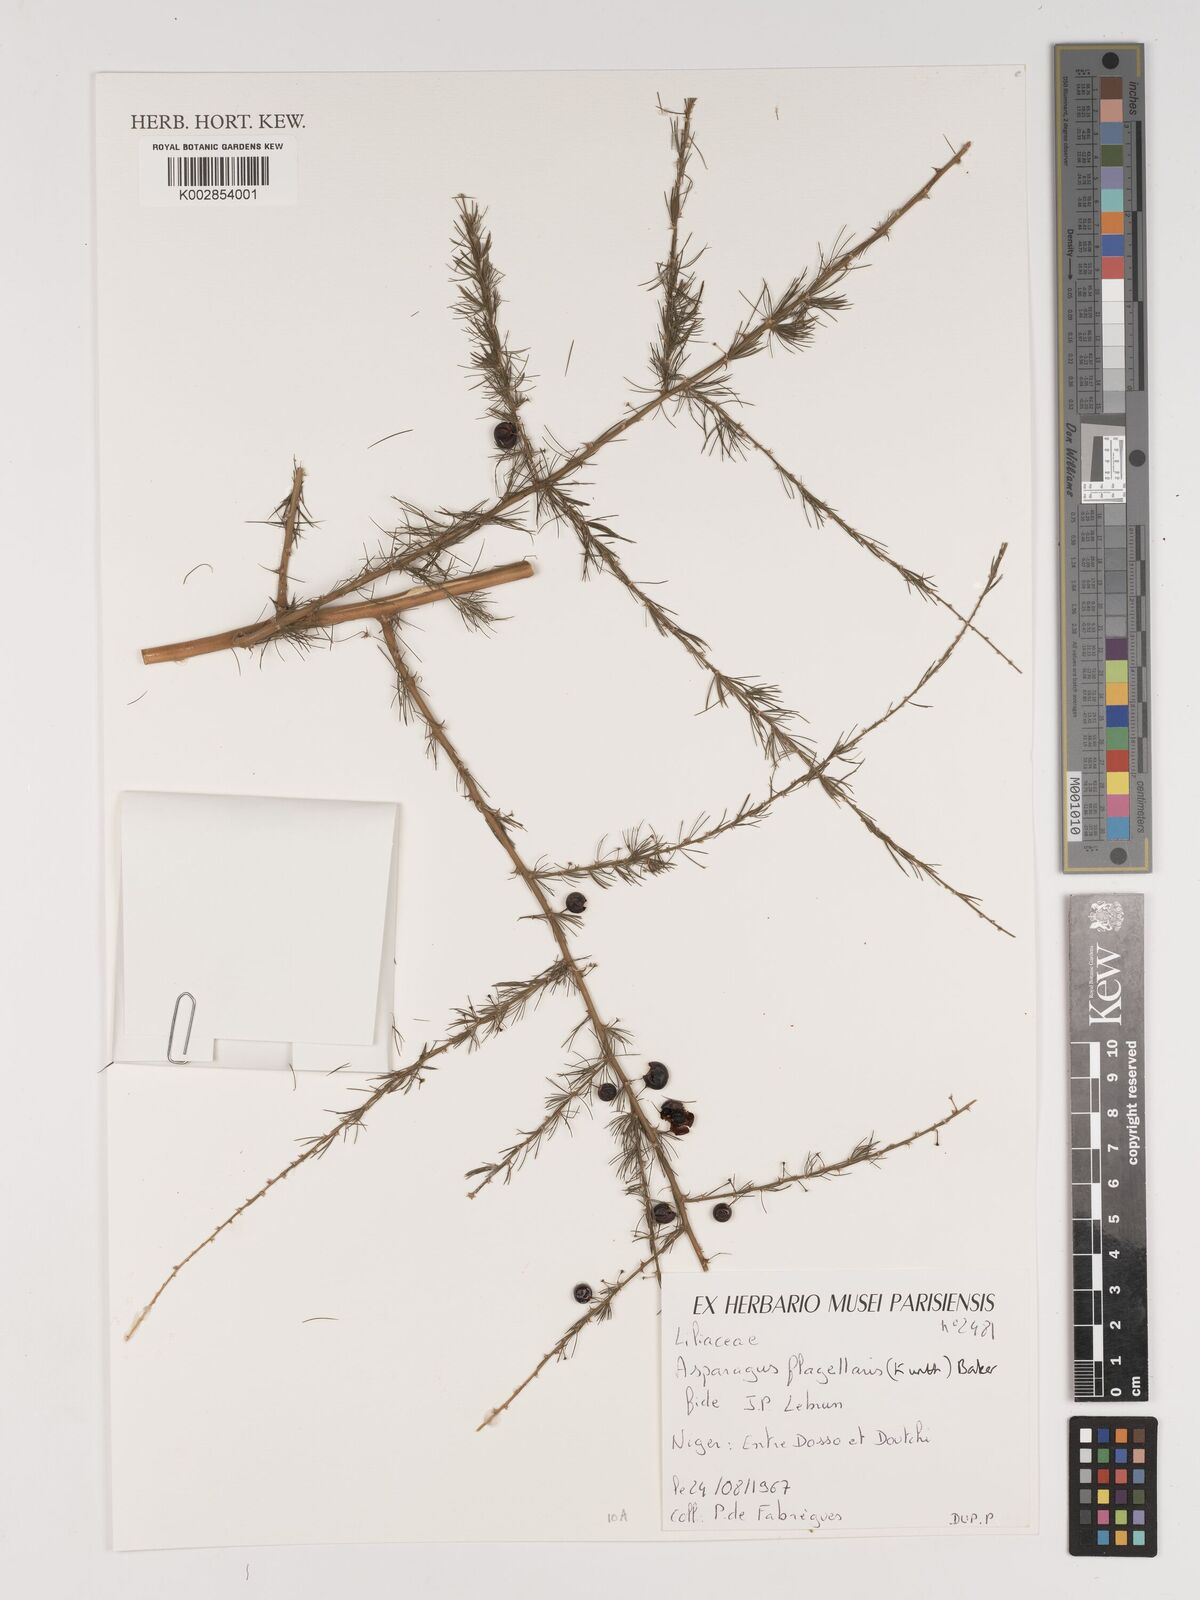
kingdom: Plantae
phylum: Tracheophyta
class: Liliopsida
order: Asparagales
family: Asparagaceae
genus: Asparagus
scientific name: Asparagus flagellaris
